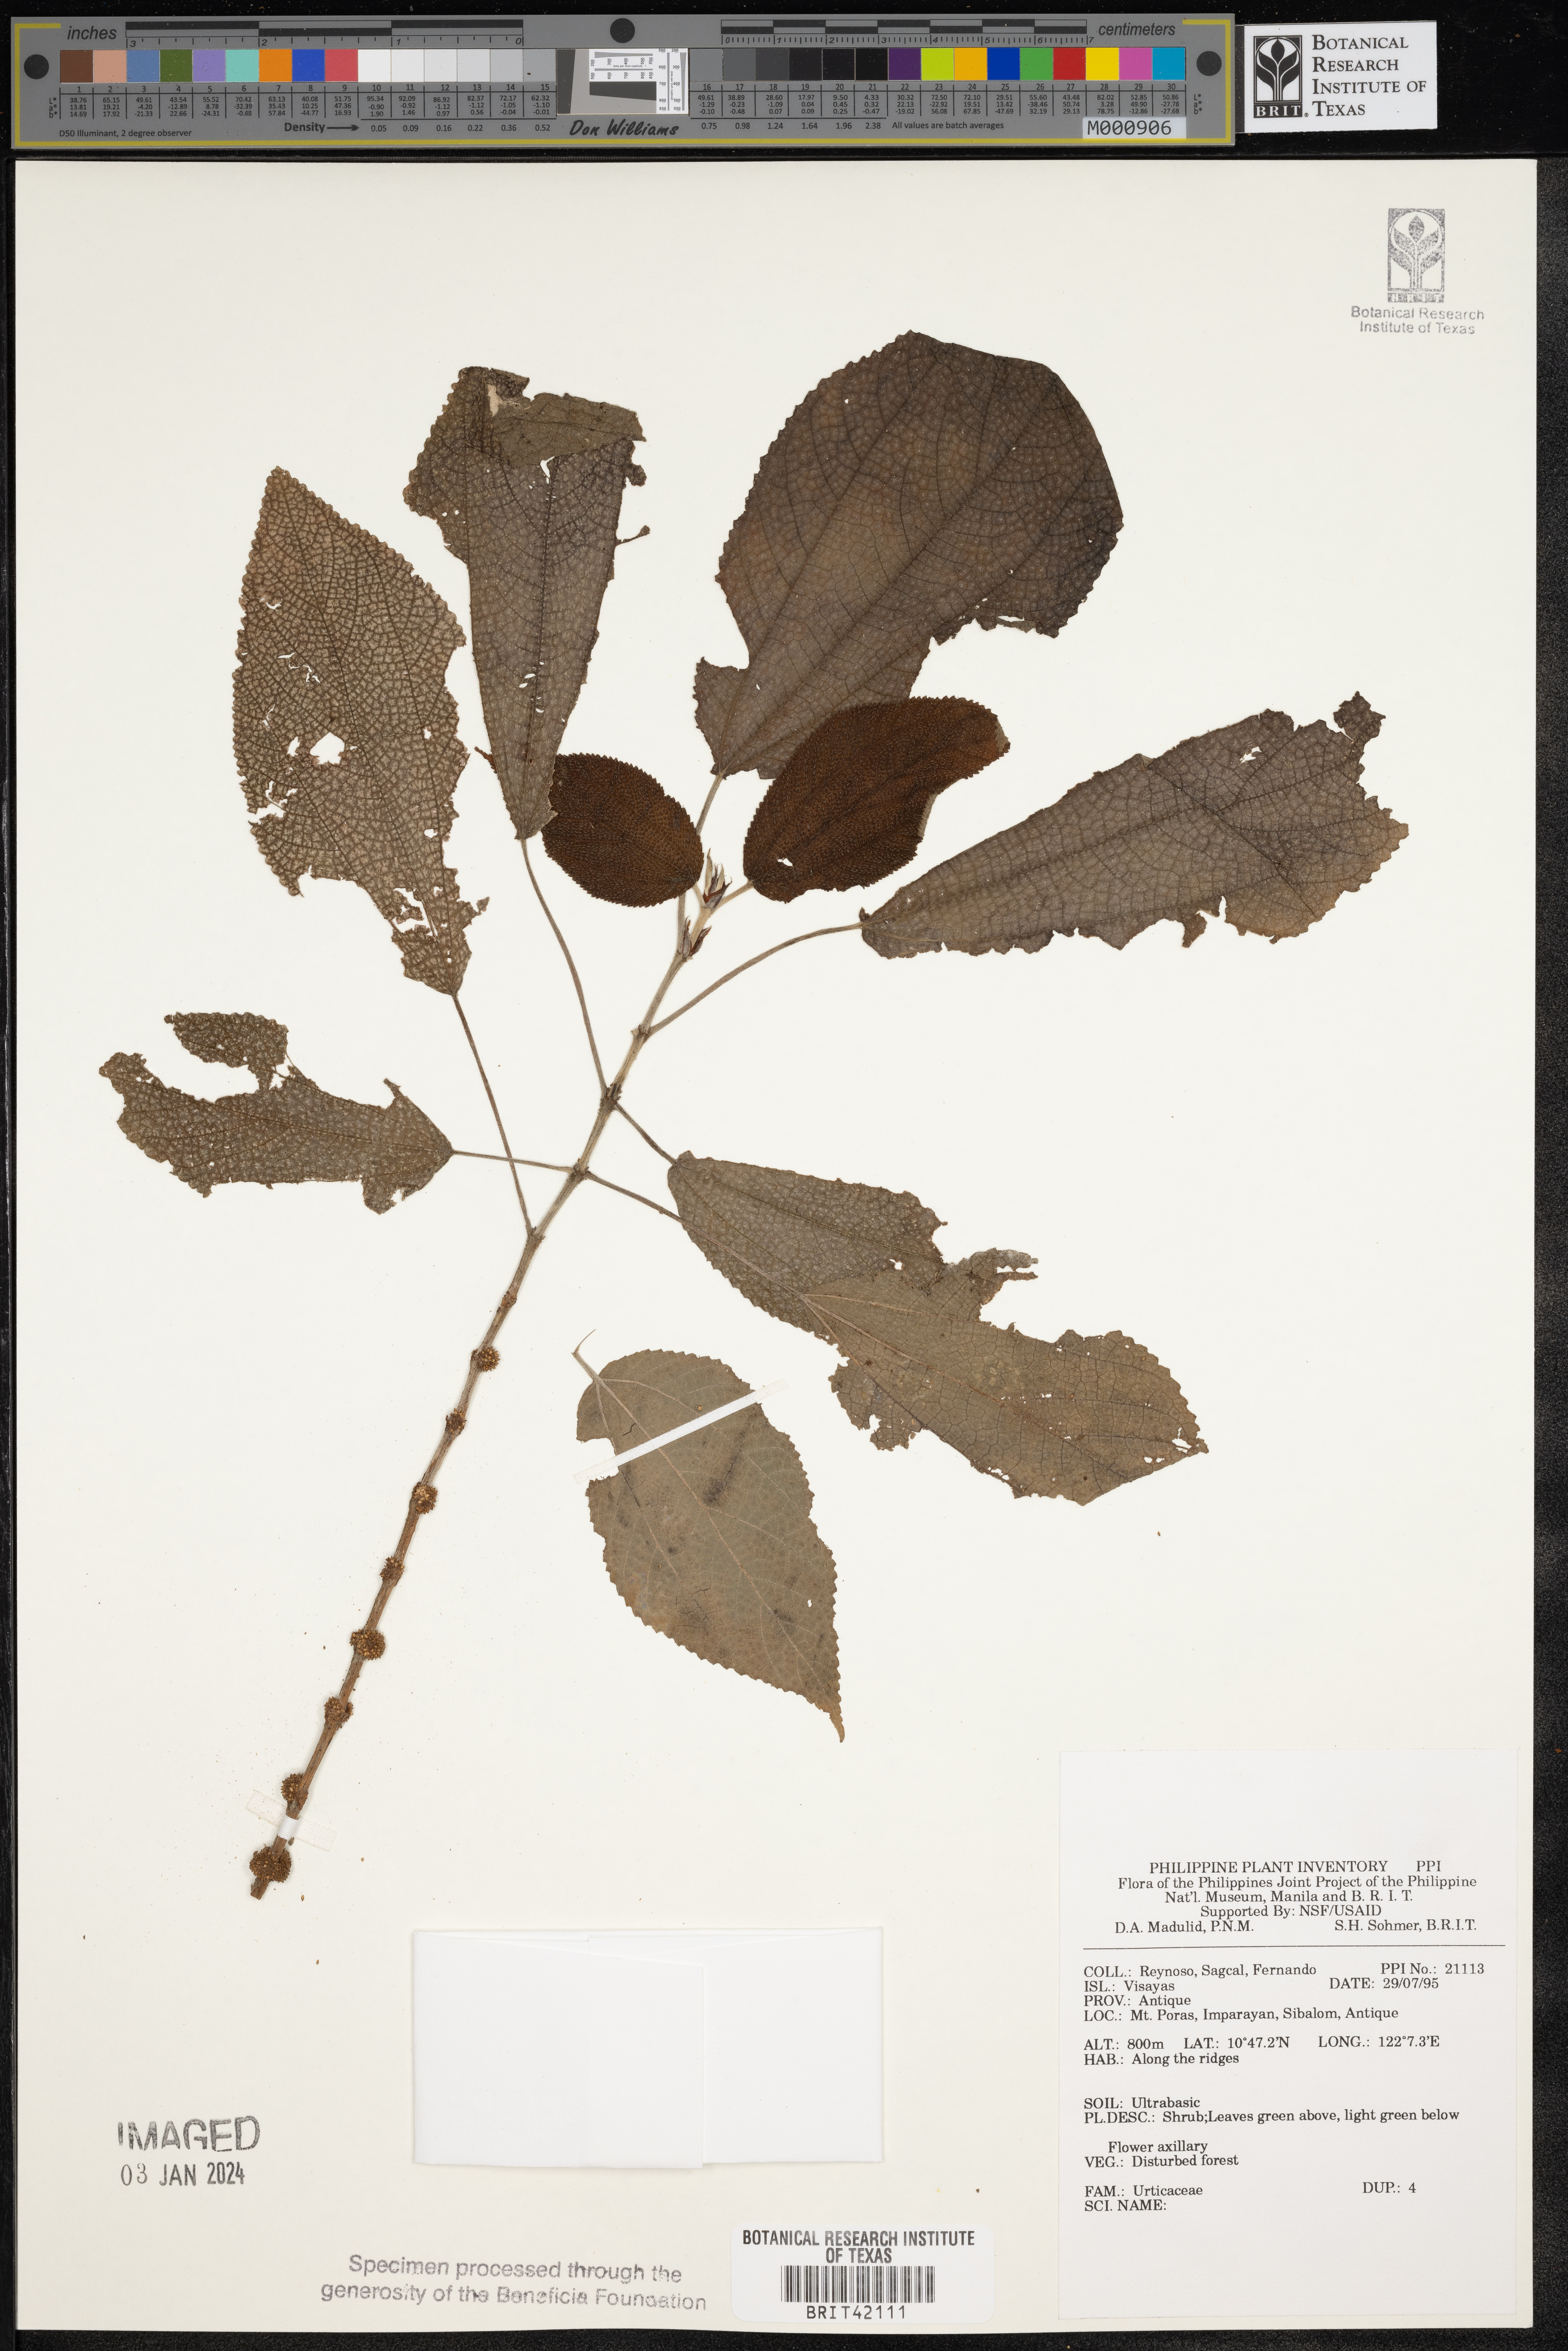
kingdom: Plantae
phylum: Tracheophyta
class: Magnoliopsida
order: Rosales
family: Urticaceae
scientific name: Urticaceae
